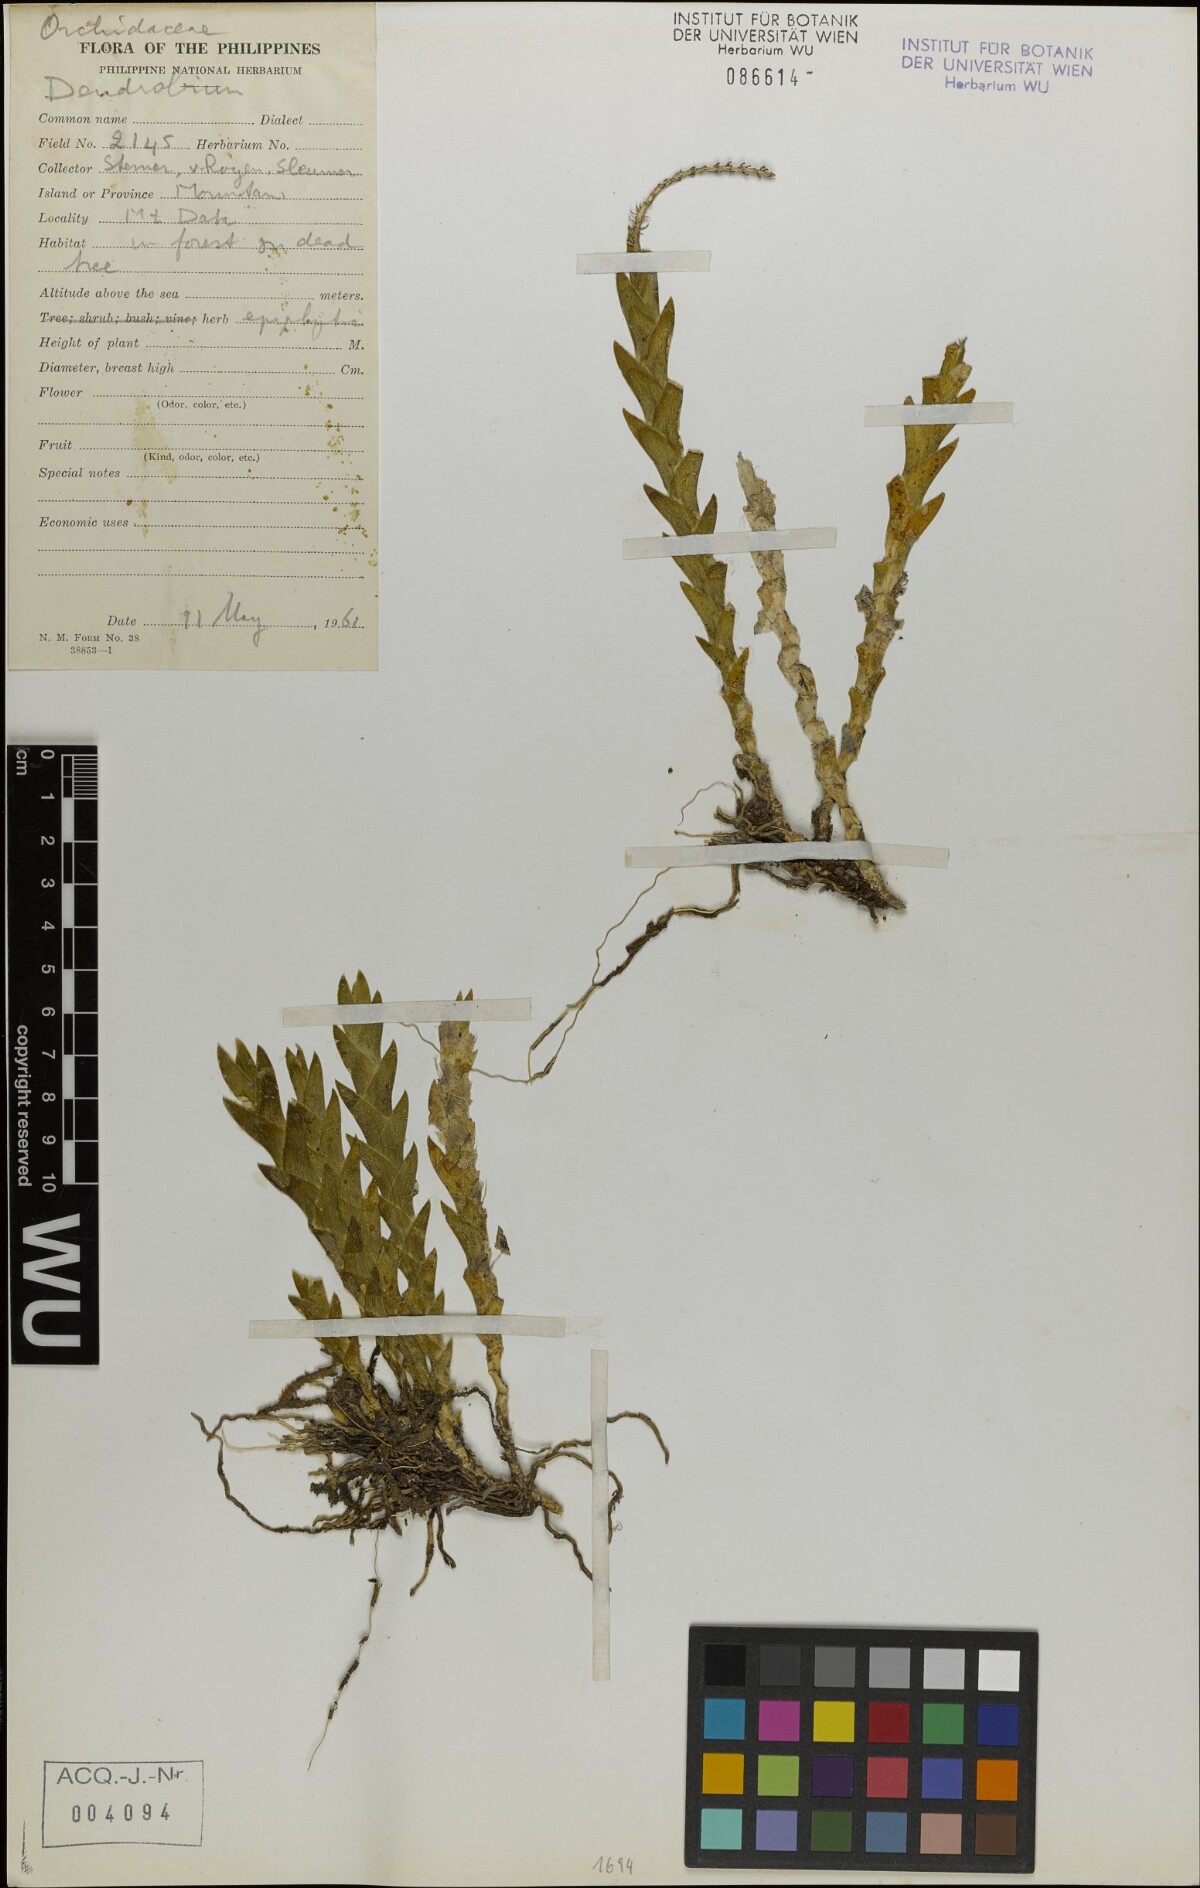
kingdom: Plantae
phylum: Tracheophyta
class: Liliopsida
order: Asparagales
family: Orchidaceae
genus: Dendrobium
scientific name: Dendrobium
